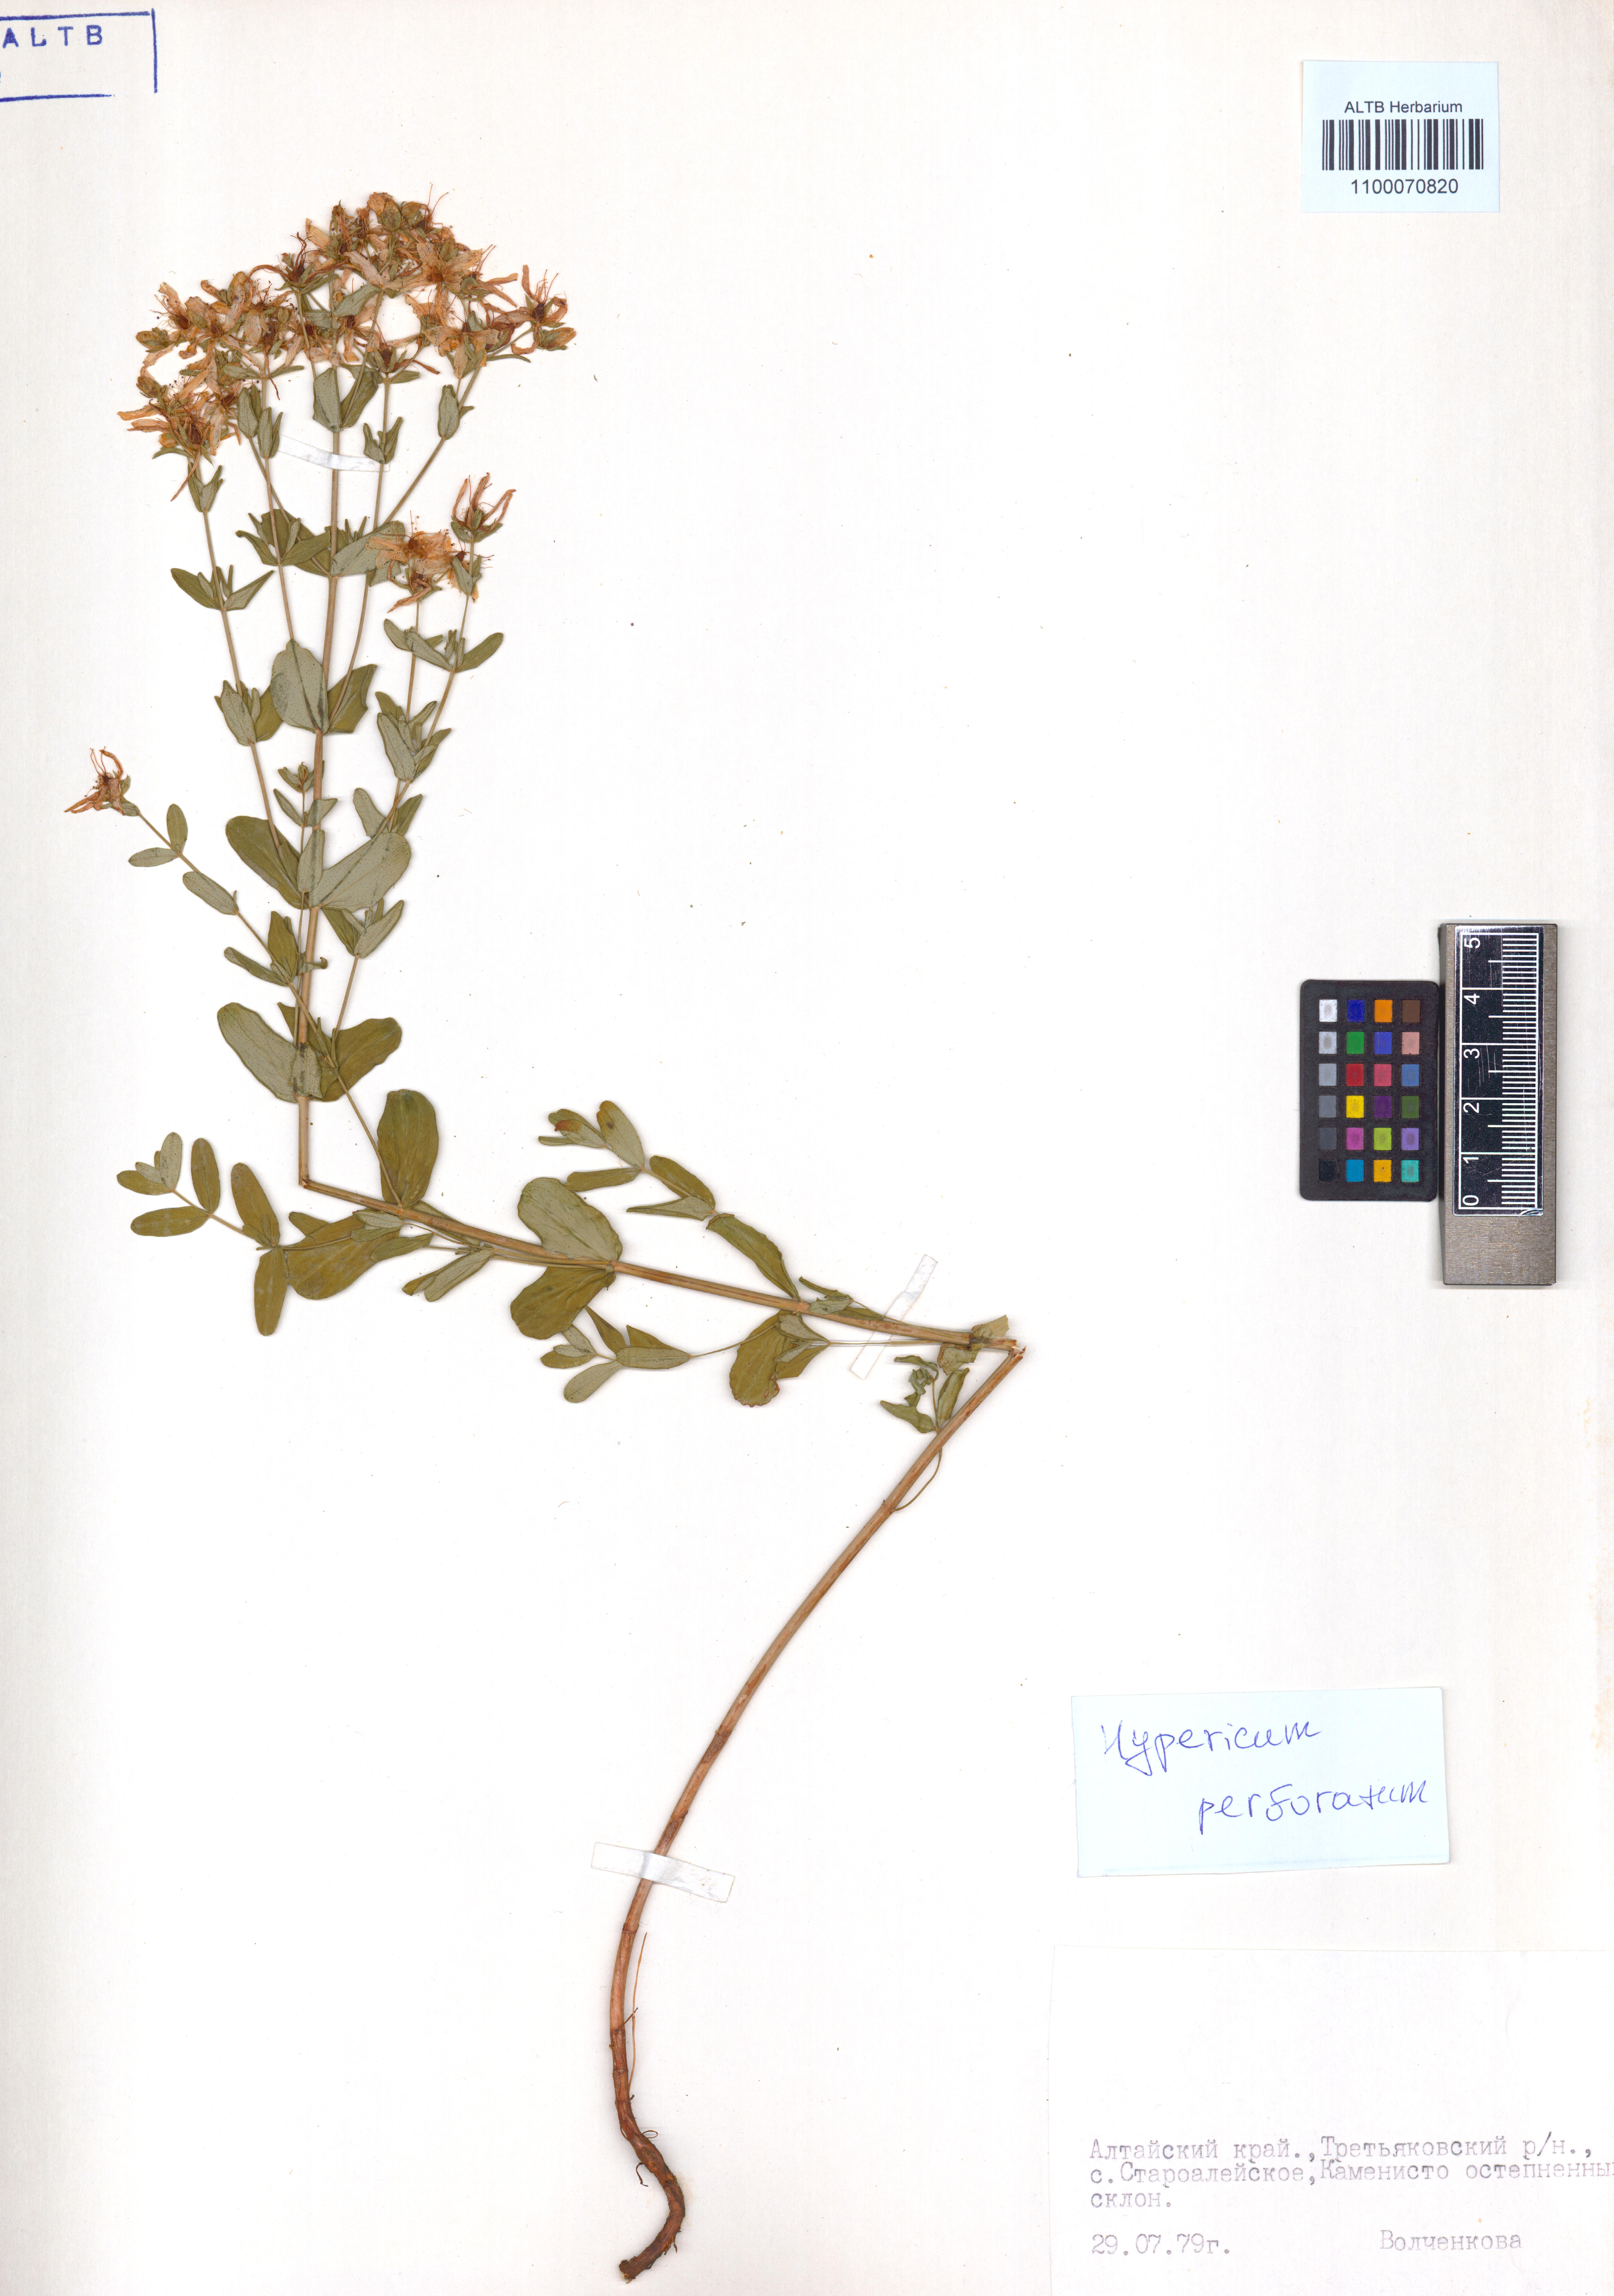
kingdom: Plantae
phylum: Tracheophyta
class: Magnoliopsida
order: Malpighiales
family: Hypericaceae
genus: Hypericum
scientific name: Hypericum perforatum
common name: Common st. johnswort
